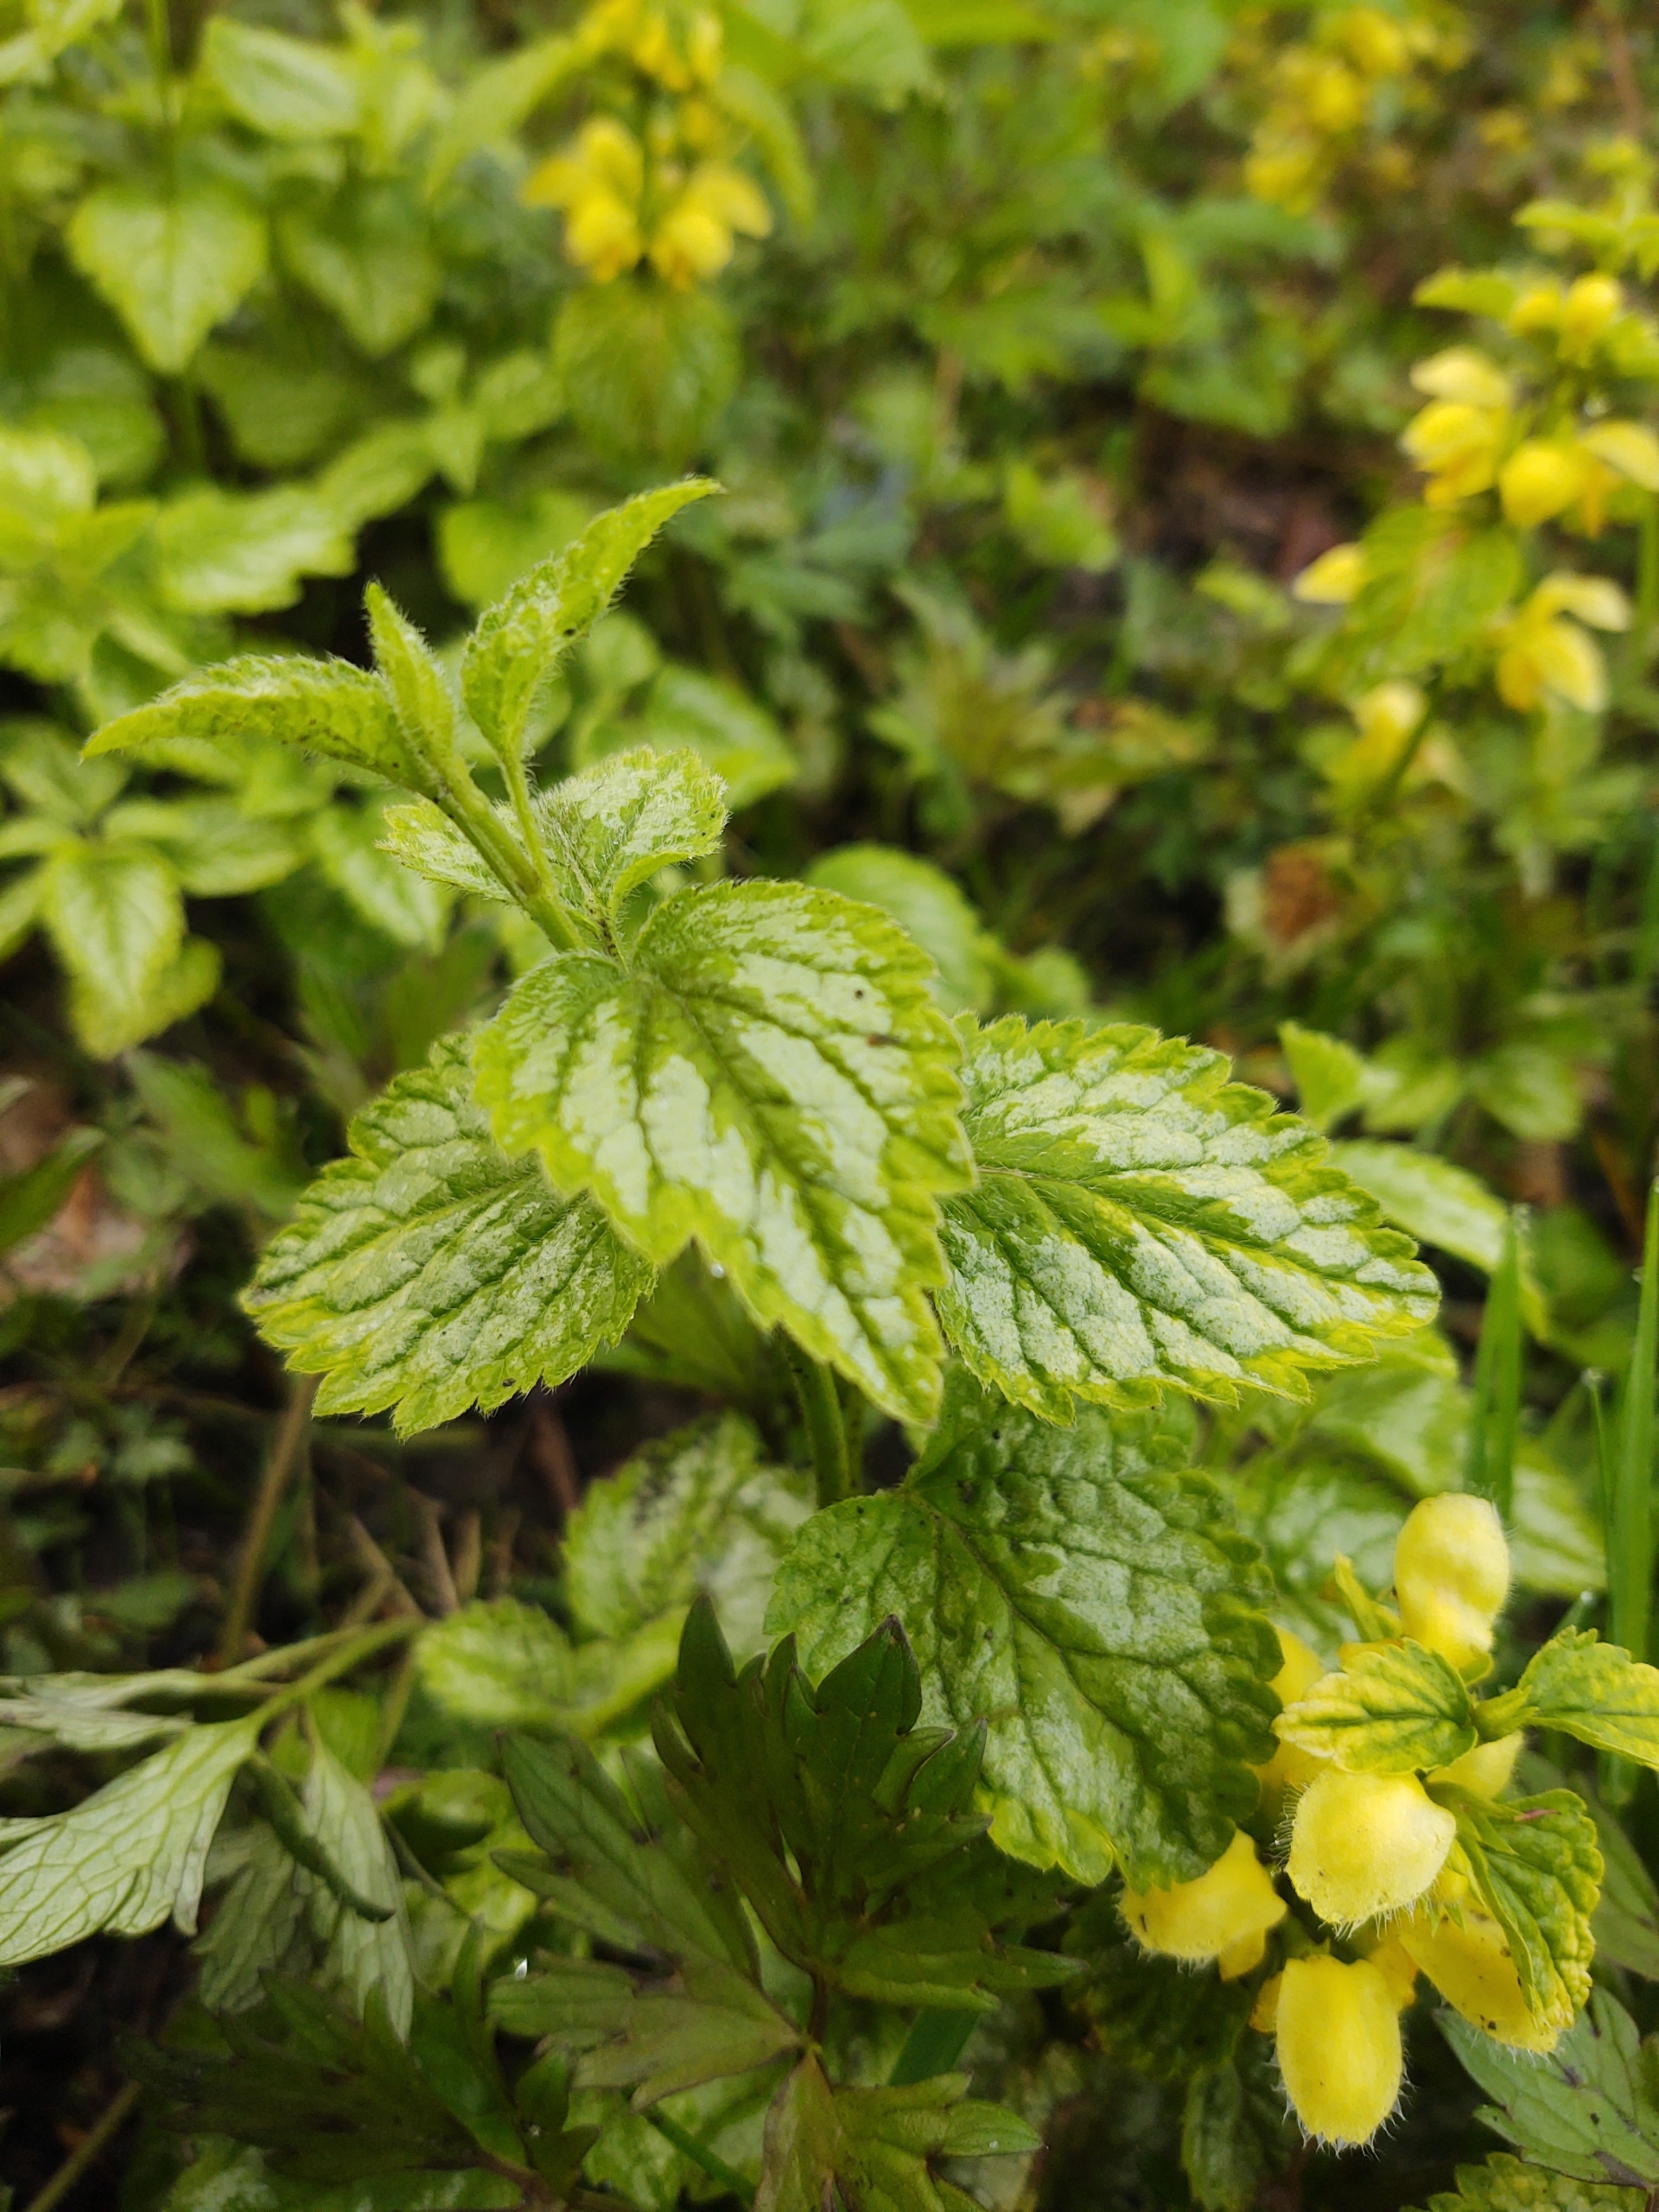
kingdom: Plantae
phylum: Tracheophyta
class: Magnoliopsida
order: Lamiales
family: Lamiaceae
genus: Lamium
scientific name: Lamium galeobdolon
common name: Have-guldnælde
